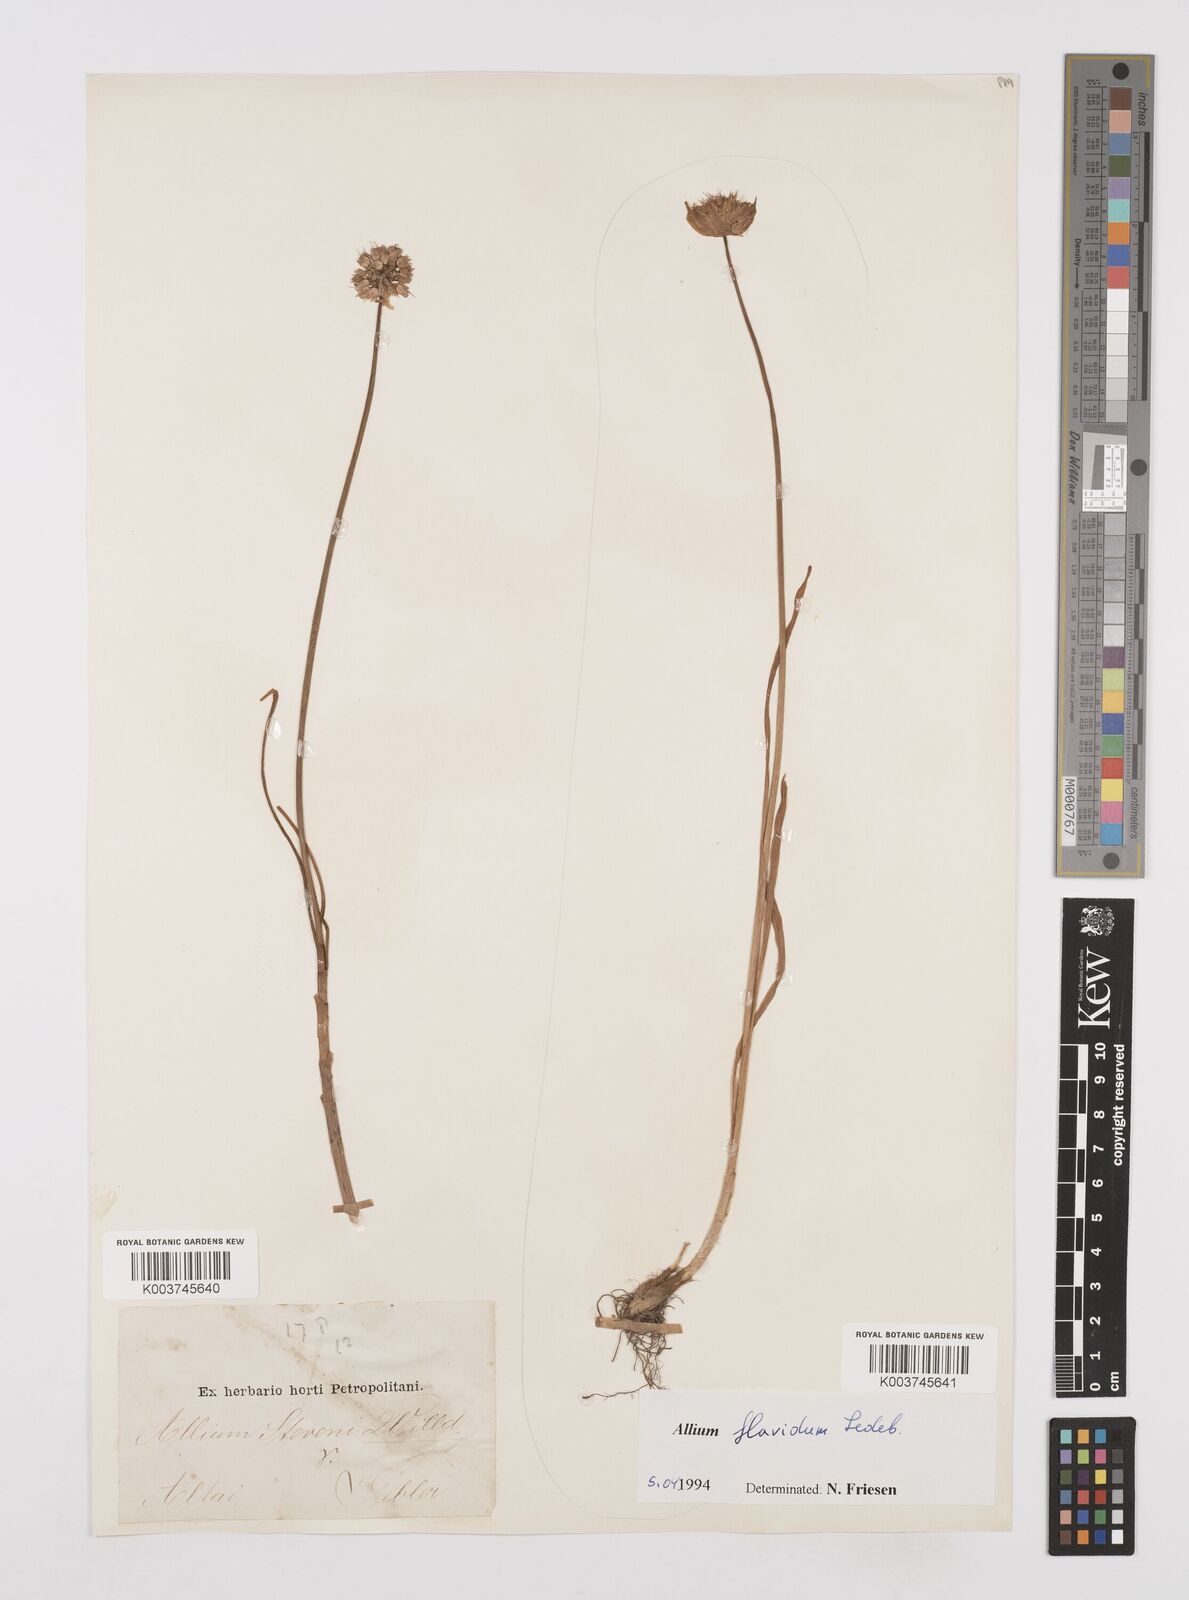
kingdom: Plantae
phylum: Tracheophyta
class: Liliopsida
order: Asparagales
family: Amaryllidaceae
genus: Allium
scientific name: Allium textile
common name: Prairie onion
